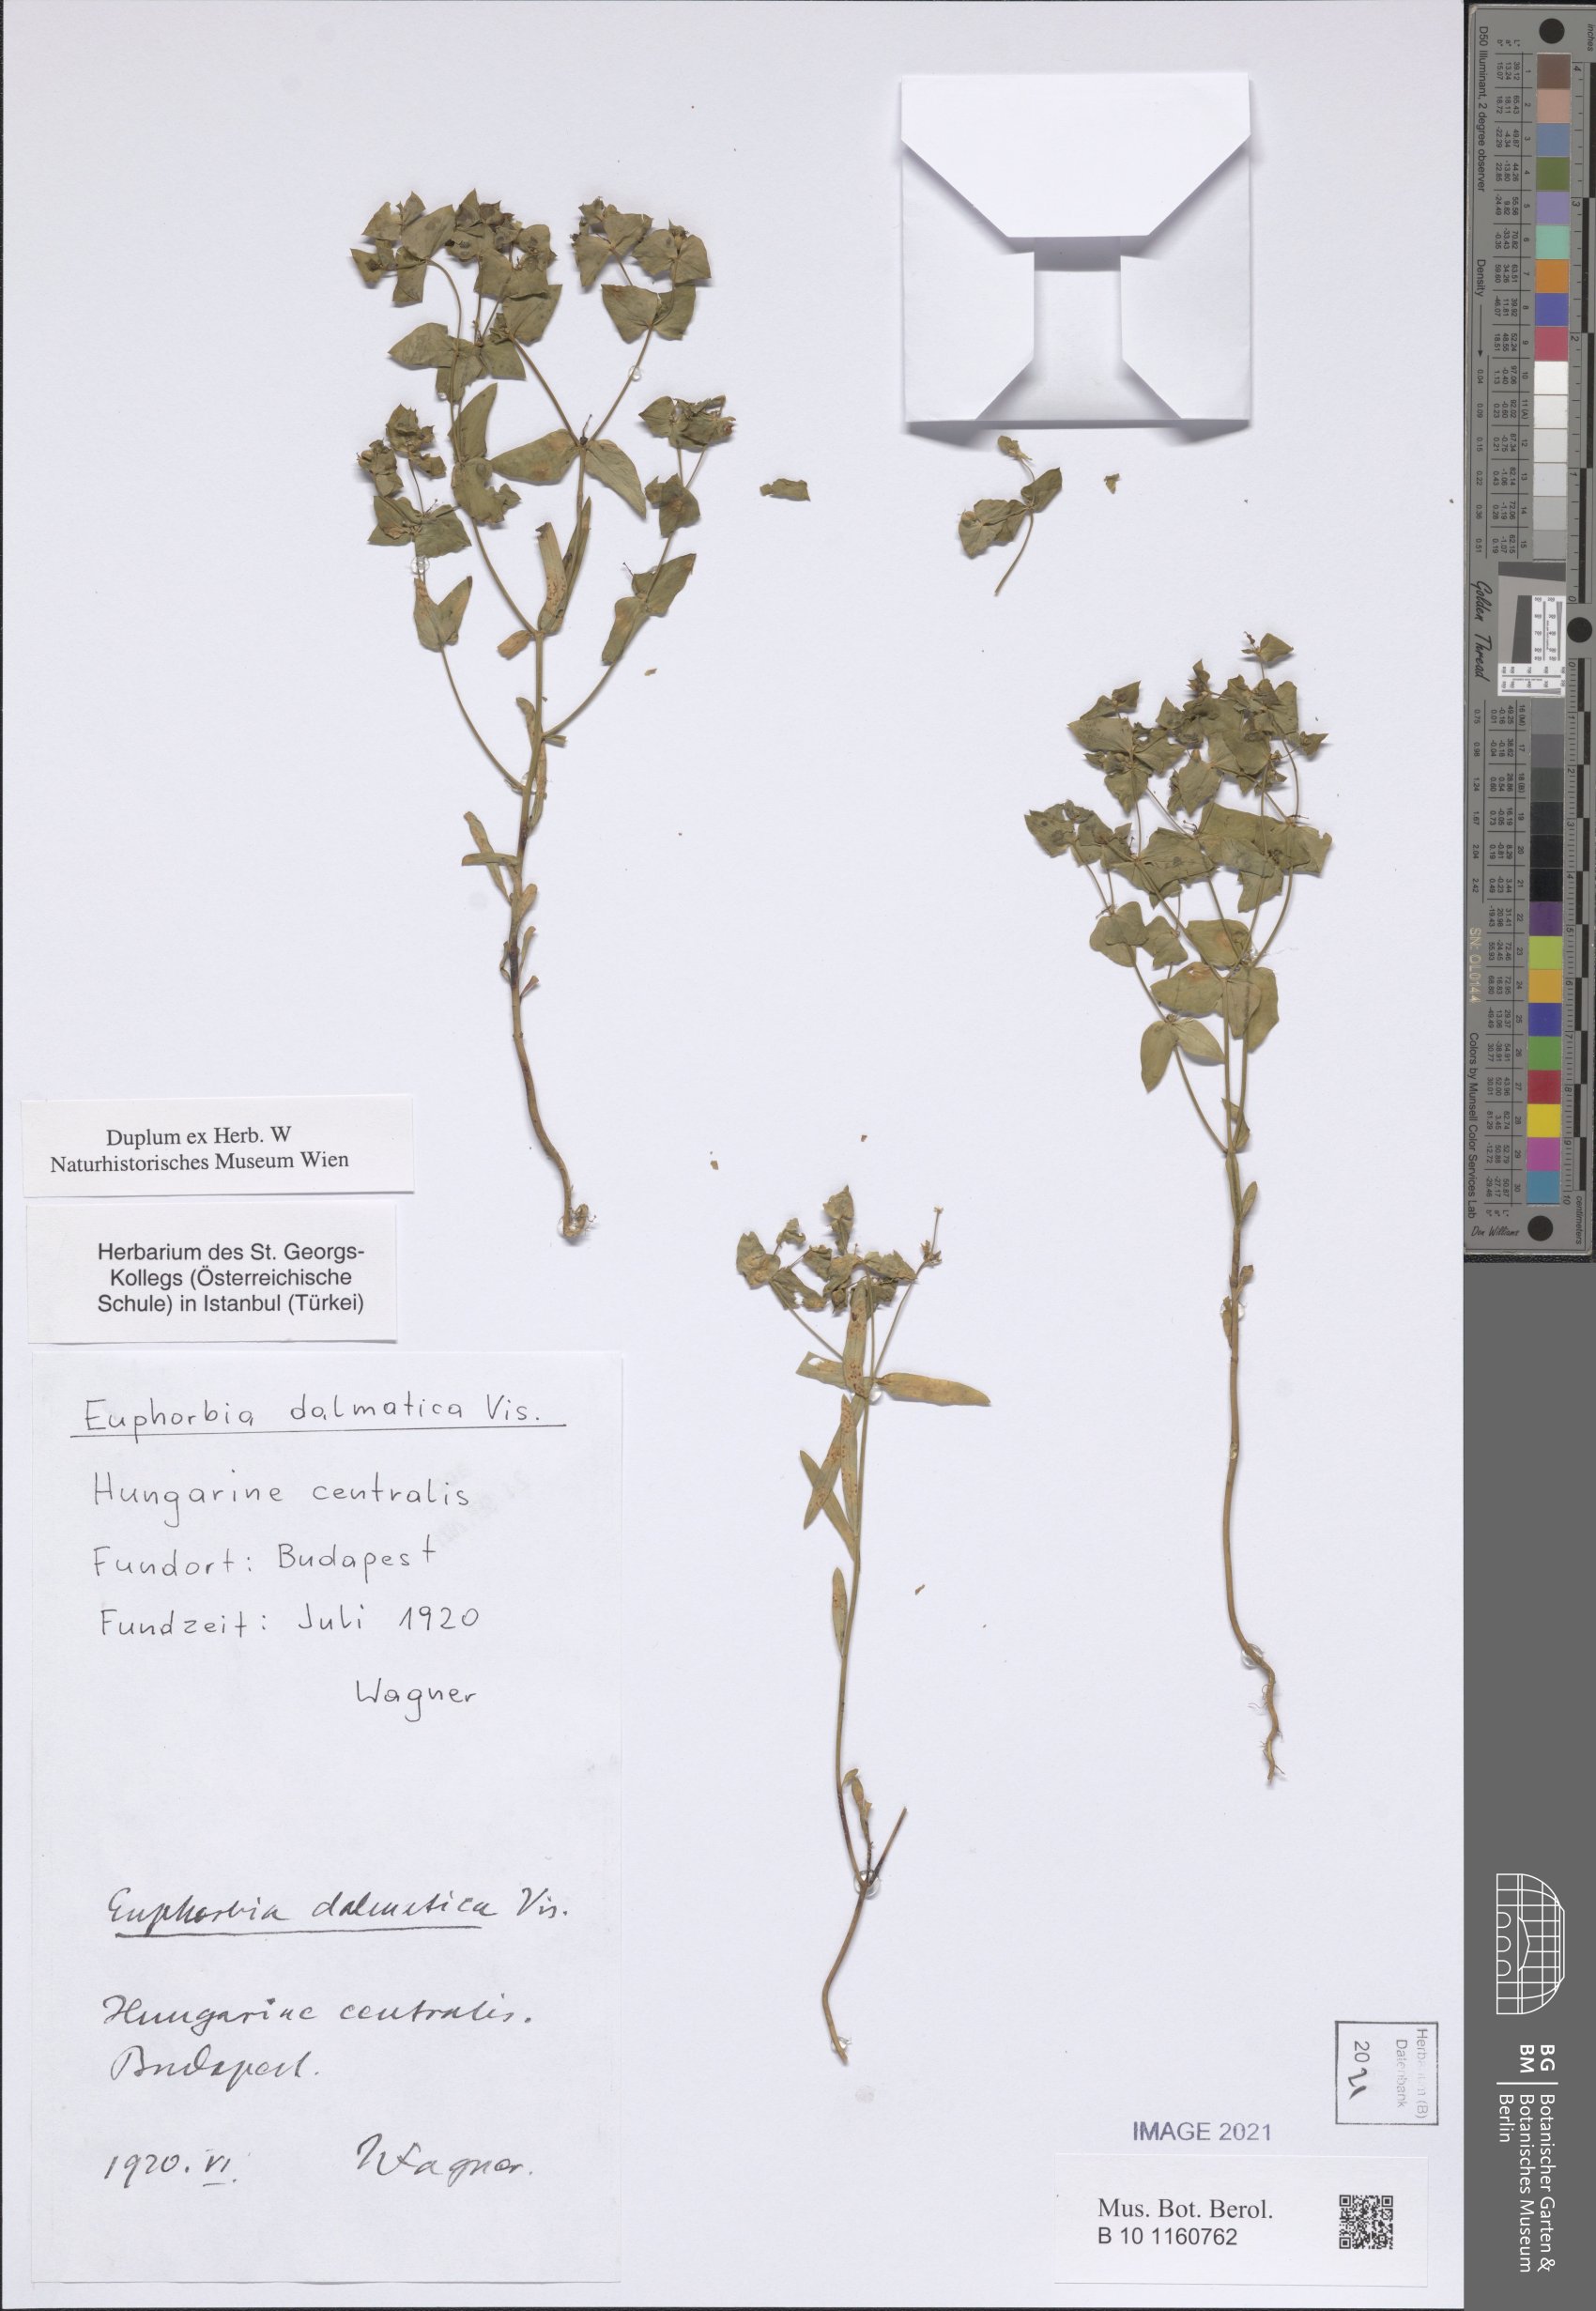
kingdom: Plantae
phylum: Tracheophyta
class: Magnoliopsida
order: Malpighiales
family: Euphorbiaceae
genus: Euphorbia
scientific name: Euphorbia taurinensis
